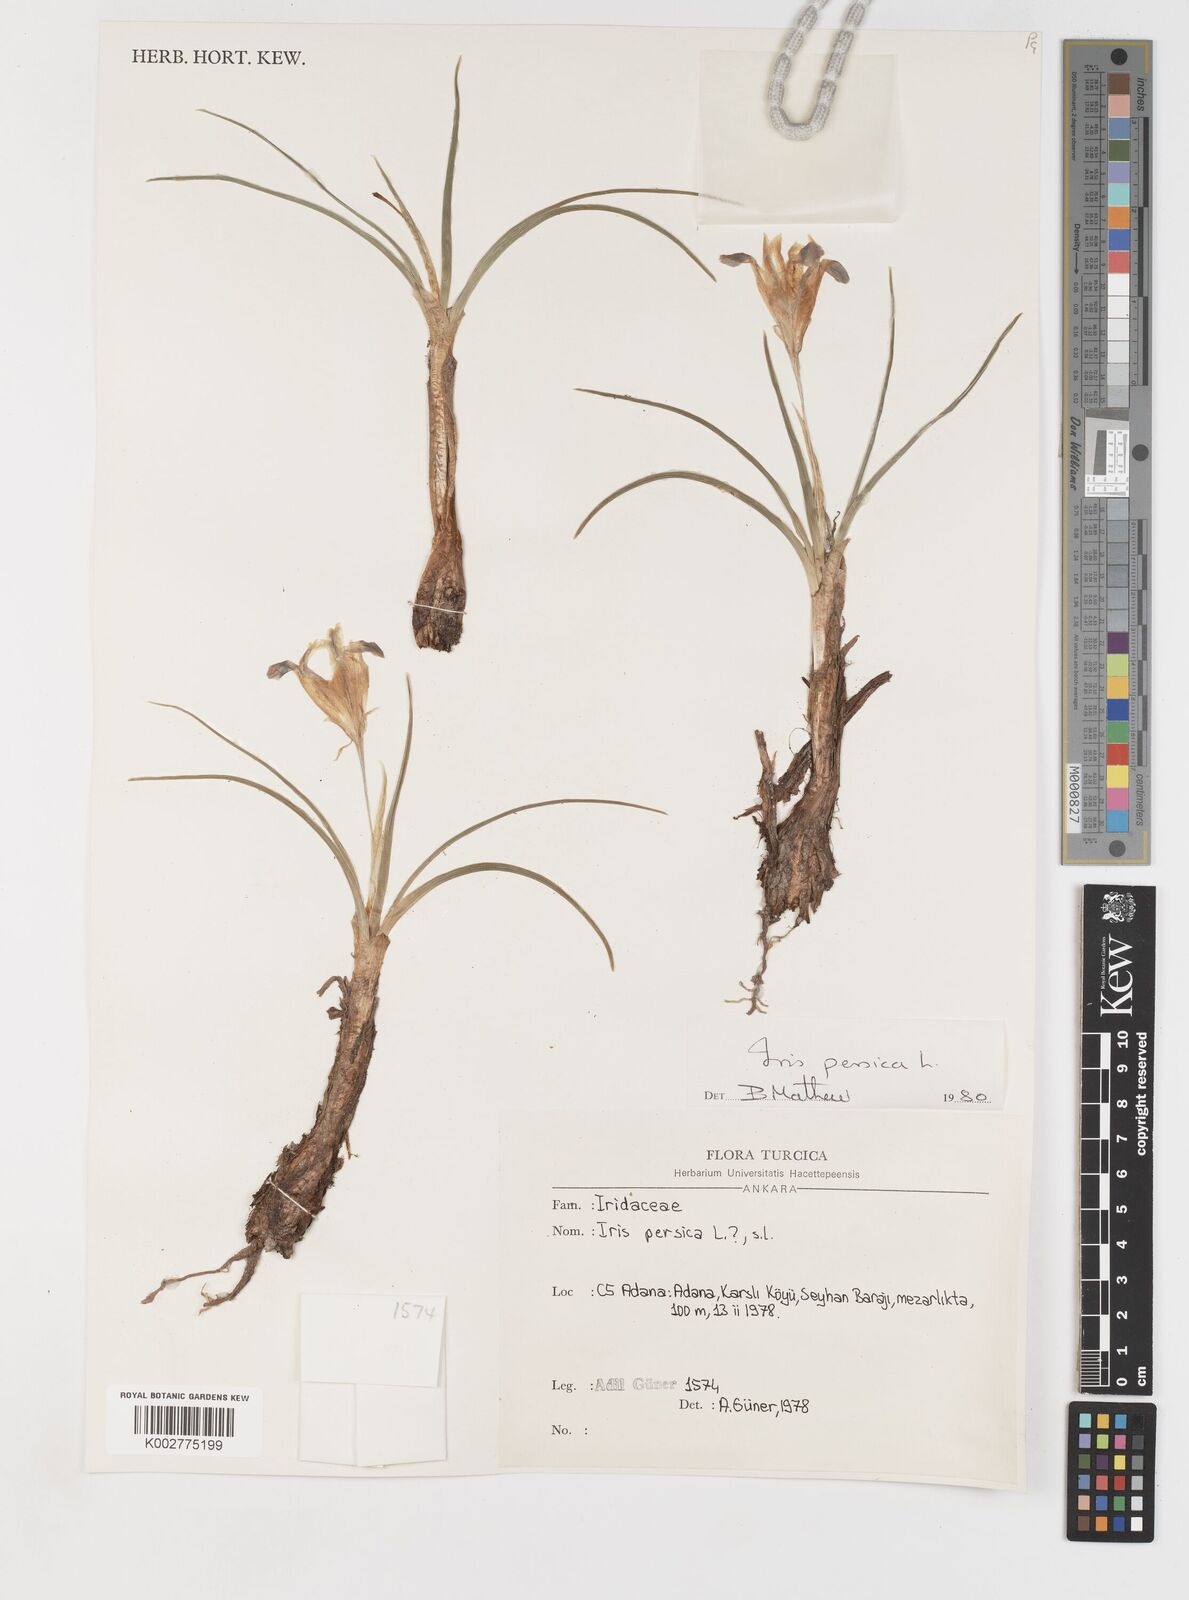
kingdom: Plantae
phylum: Tracheophyta
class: Liliopsida
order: Asparagales
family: Iridaceae
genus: Iris
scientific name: Iris persica
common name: Persian iris
